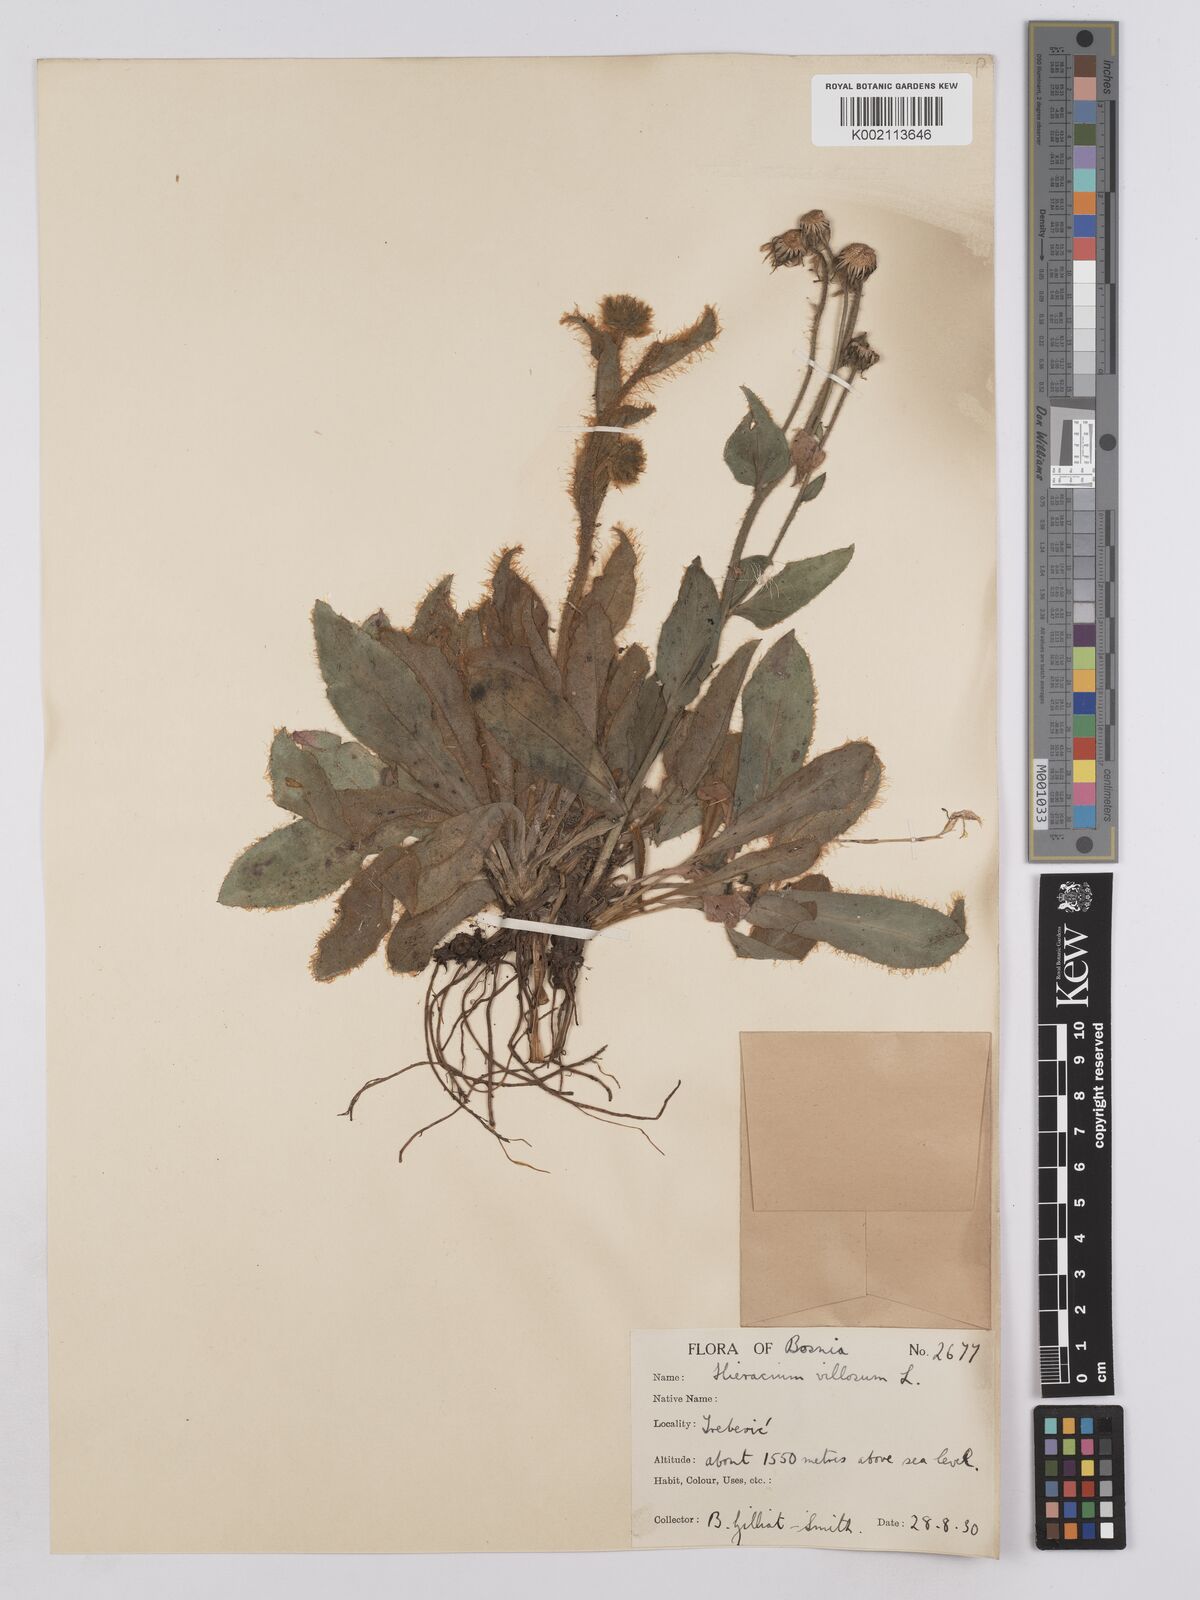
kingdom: Plantae
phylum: Tracheophyta
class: Magnoliopsida
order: Asterales
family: Asteraceae
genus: Hieracium
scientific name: Hieracium villosum
